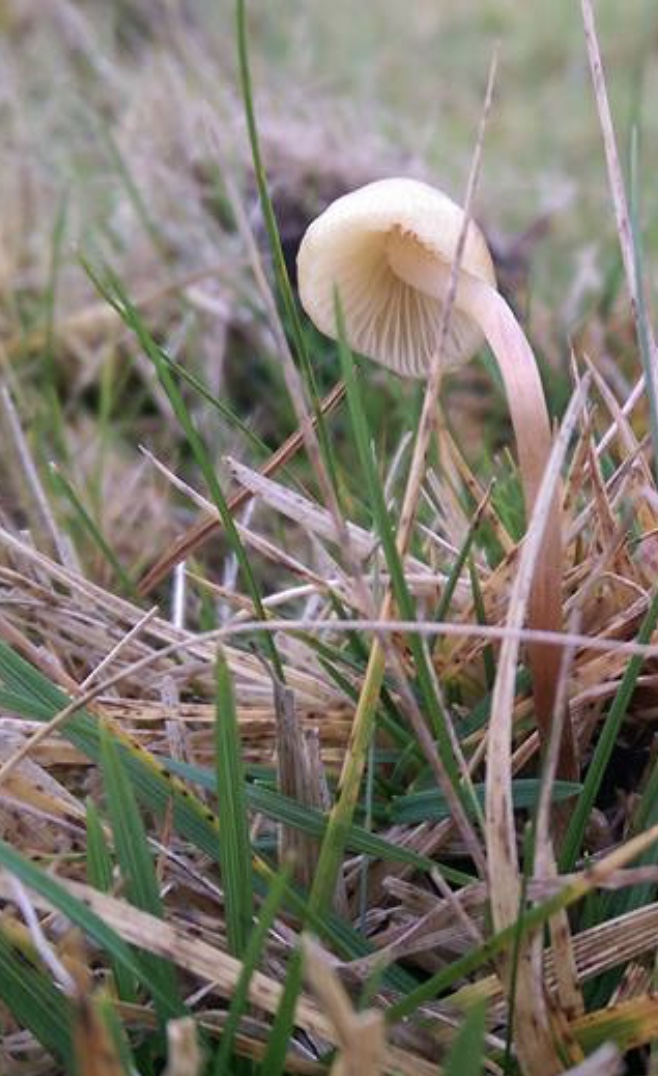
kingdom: Fungi
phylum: Basidiomycota
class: Agaricomycetes
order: Agaricales
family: Hymenogastraceae
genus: Psilocybe
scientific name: Psilocybe semilanceata
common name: spids nøgenhat
